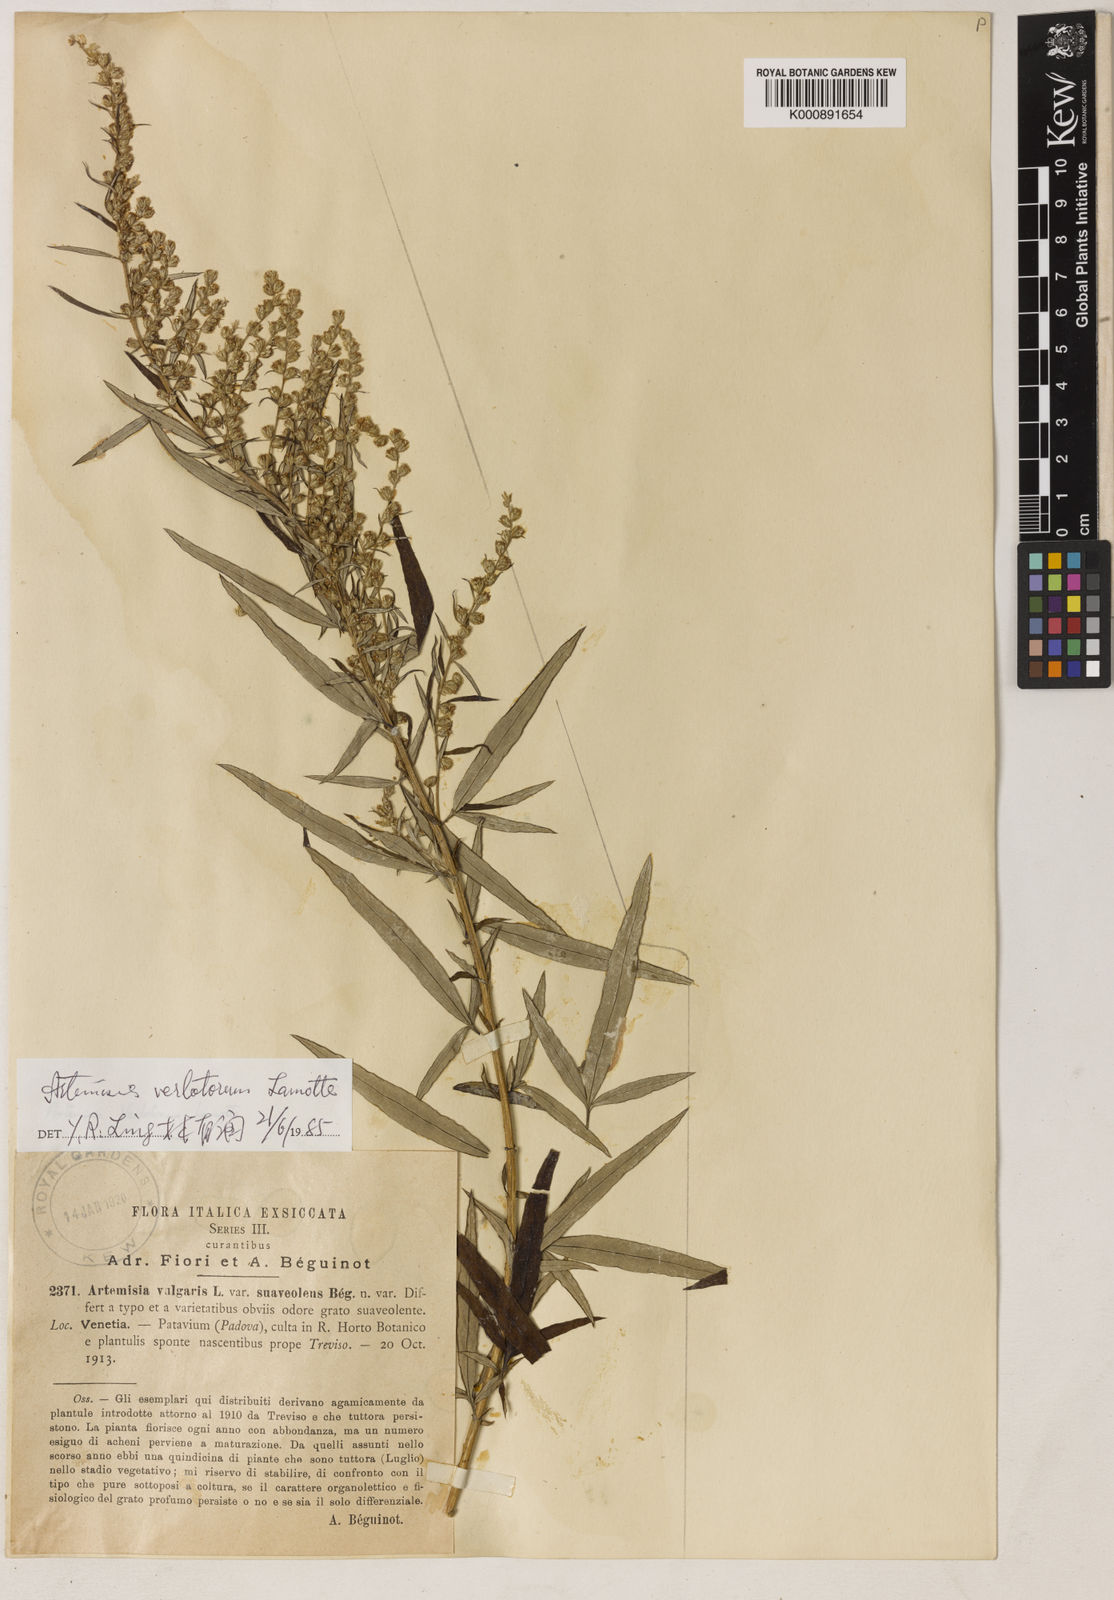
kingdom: Plantae
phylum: Tracheophyta
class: Magnoliopsida
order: Asterales
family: Asteraceae
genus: Artemisia
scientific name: Artemisia verlotiorum
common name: Chinese mugwort
